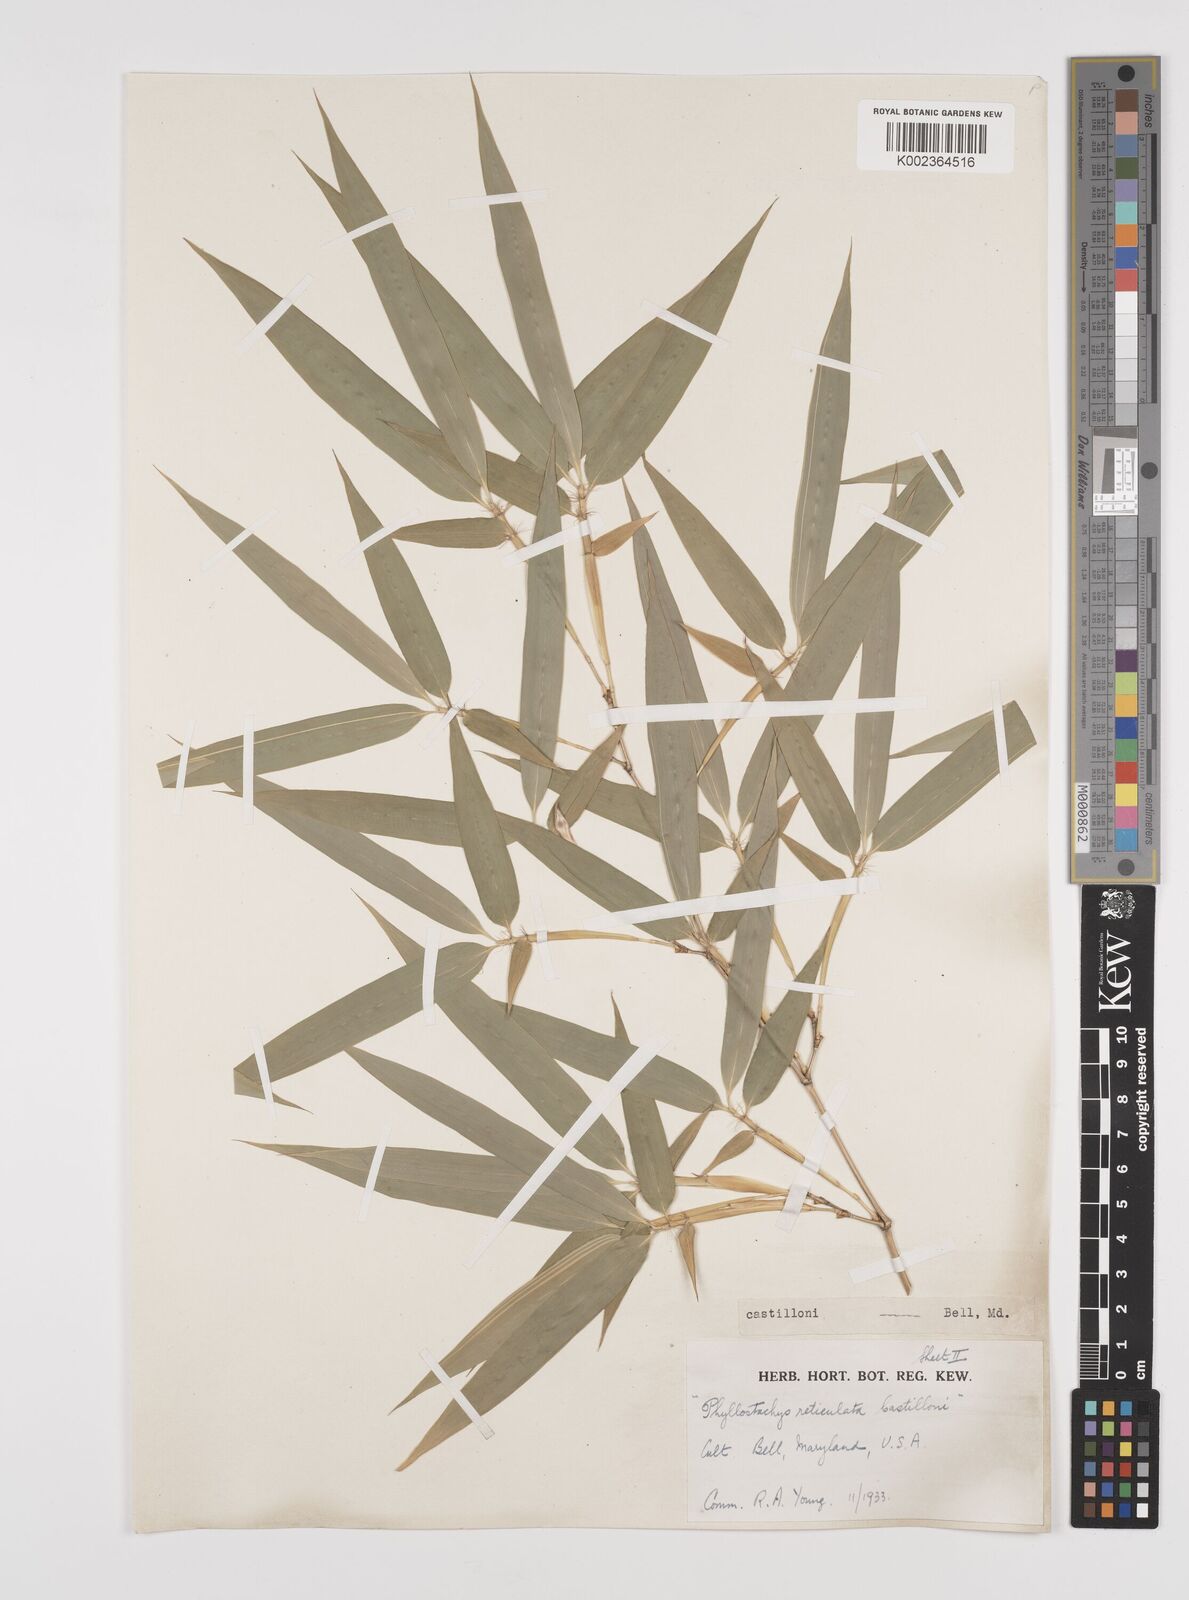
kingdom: Plantae
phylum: Tracheophyta
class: Liliopsida
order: Poales
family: Poaceae
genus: Phyllostachys
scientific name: Phyllostachys reticulata
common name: Bamboo
